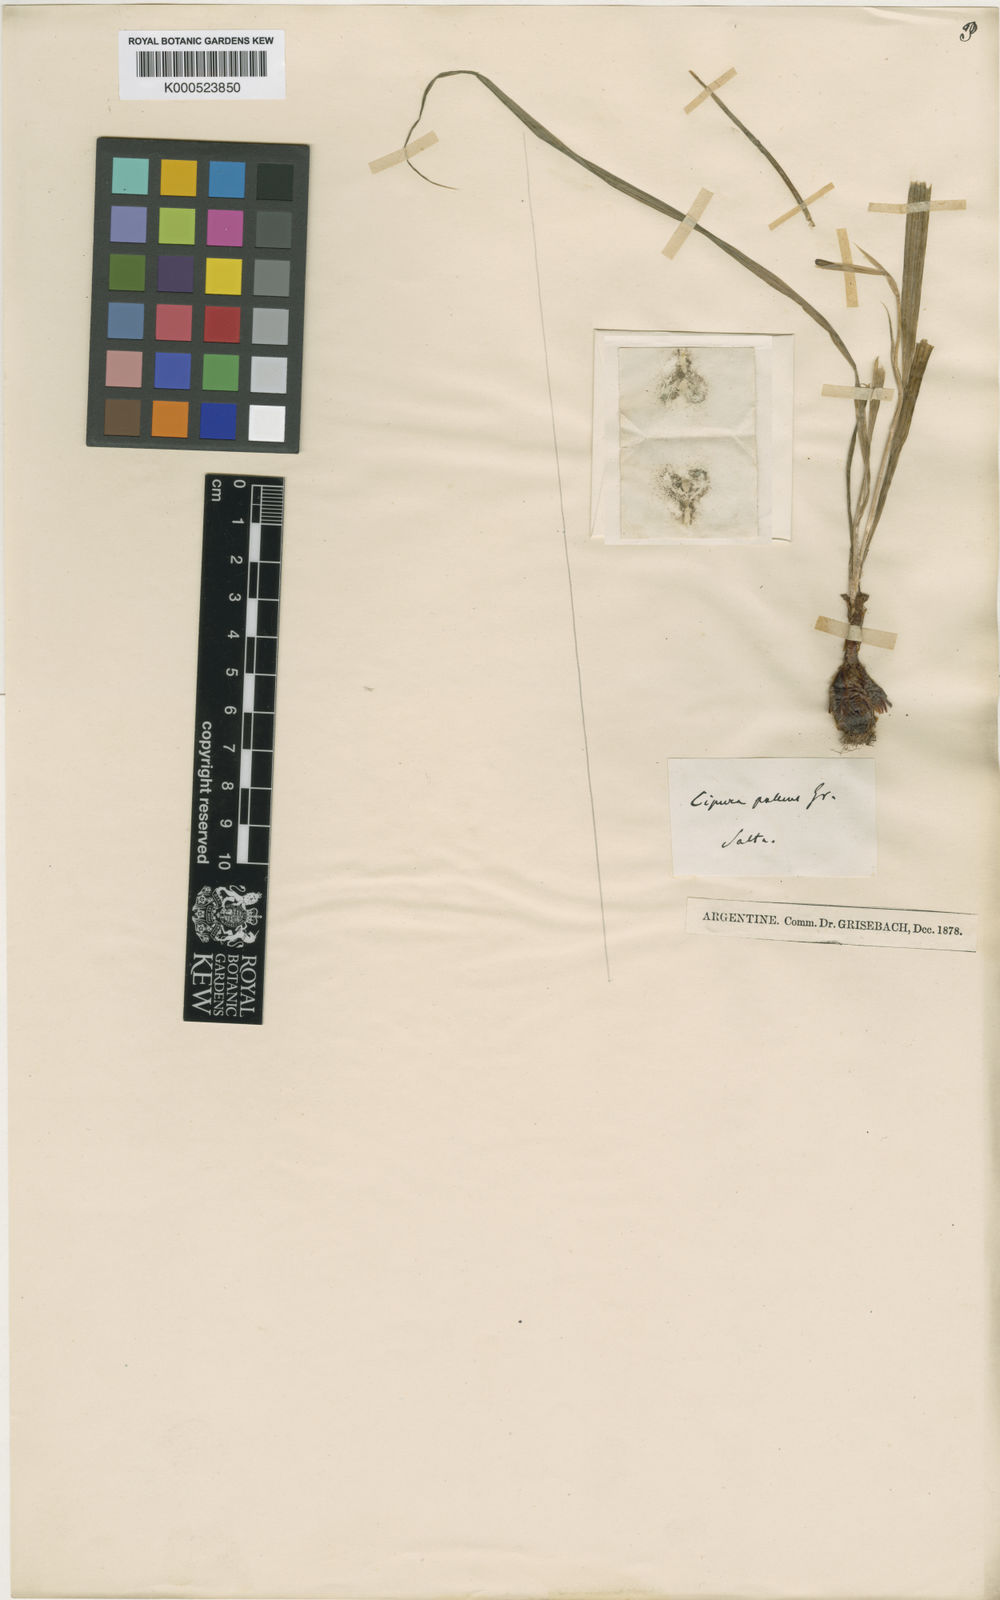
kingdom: Plantae
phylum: Tracheophyta
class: Liliopsida
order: Asparagales
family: Iridaceae
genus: Cypella
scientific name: Cypella
